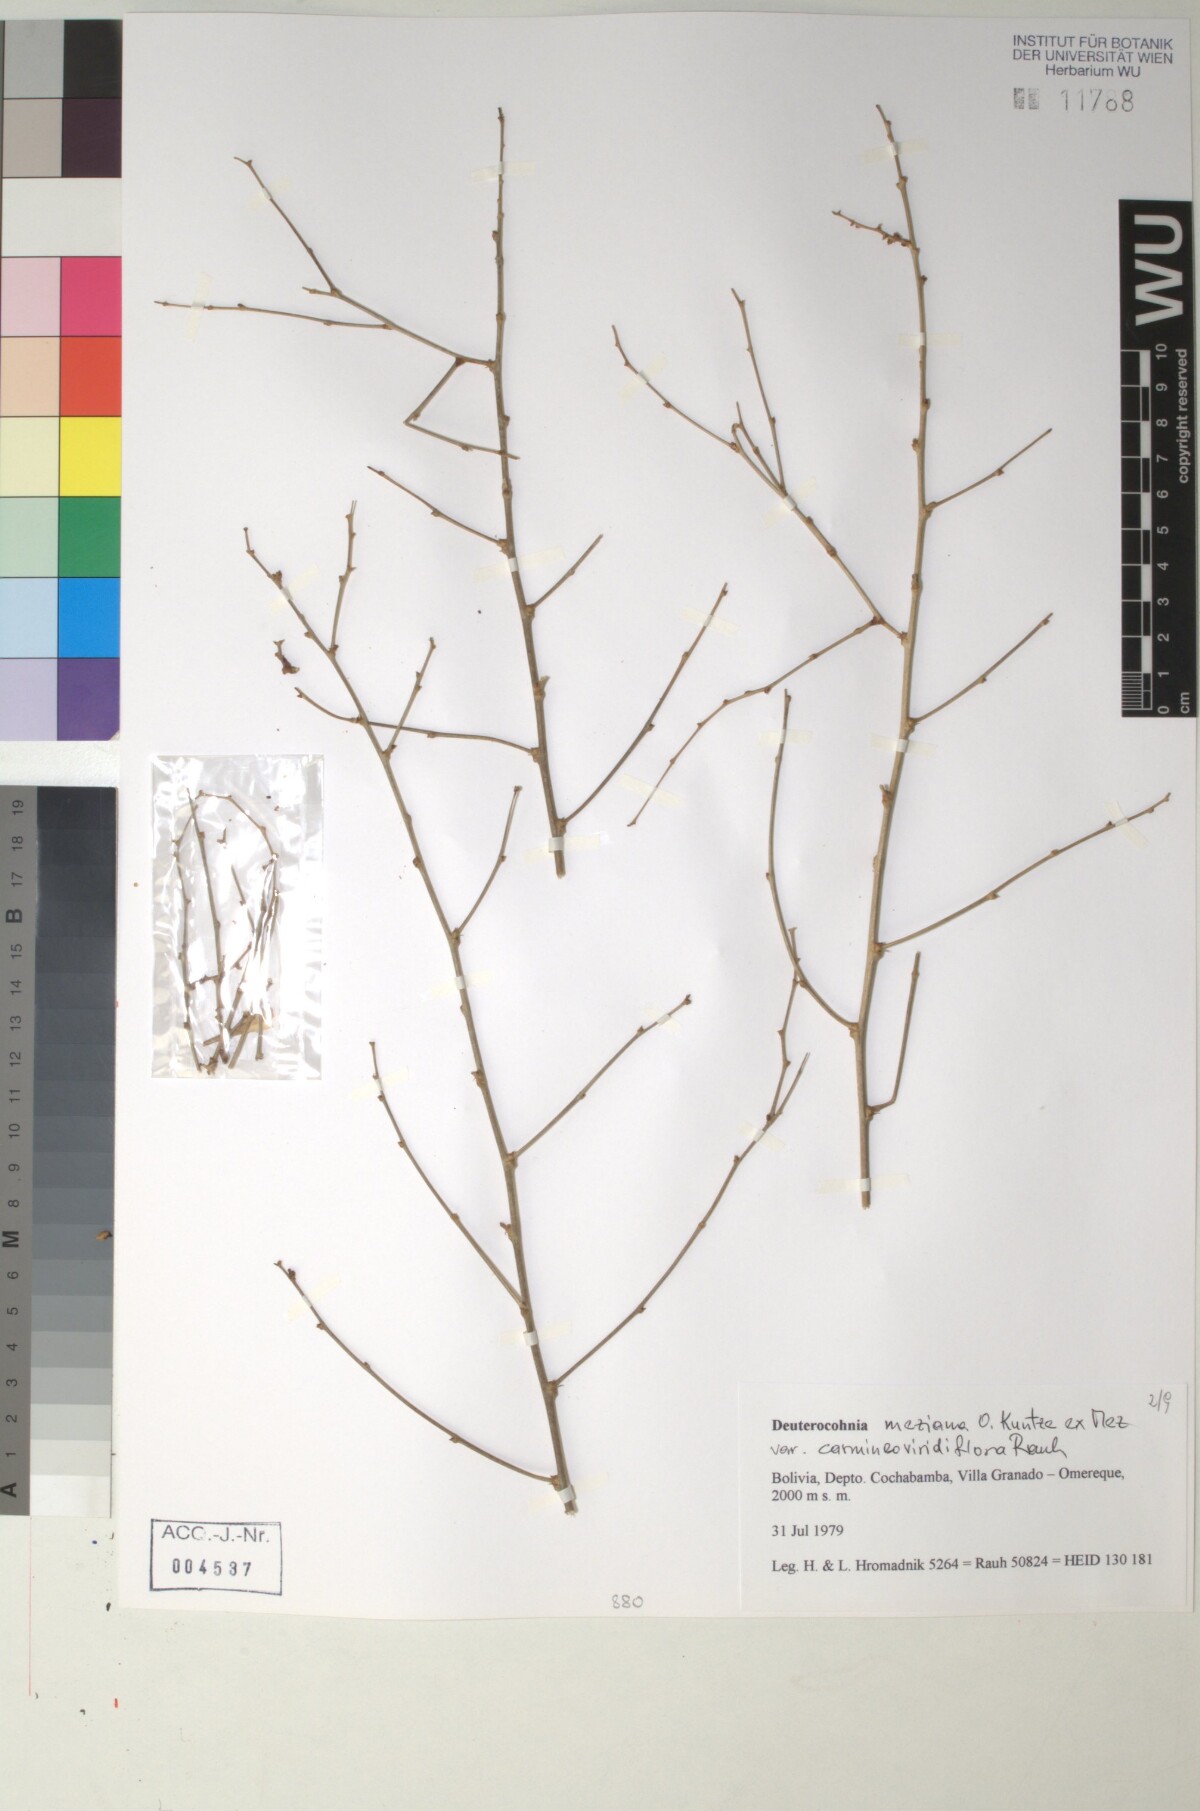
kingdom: Plantae
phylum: Tracheophyta
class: Liliopsida
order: Poales
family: Bromeliaceae
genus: Deuterocohnia
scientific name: Deuterocohnia meziana
